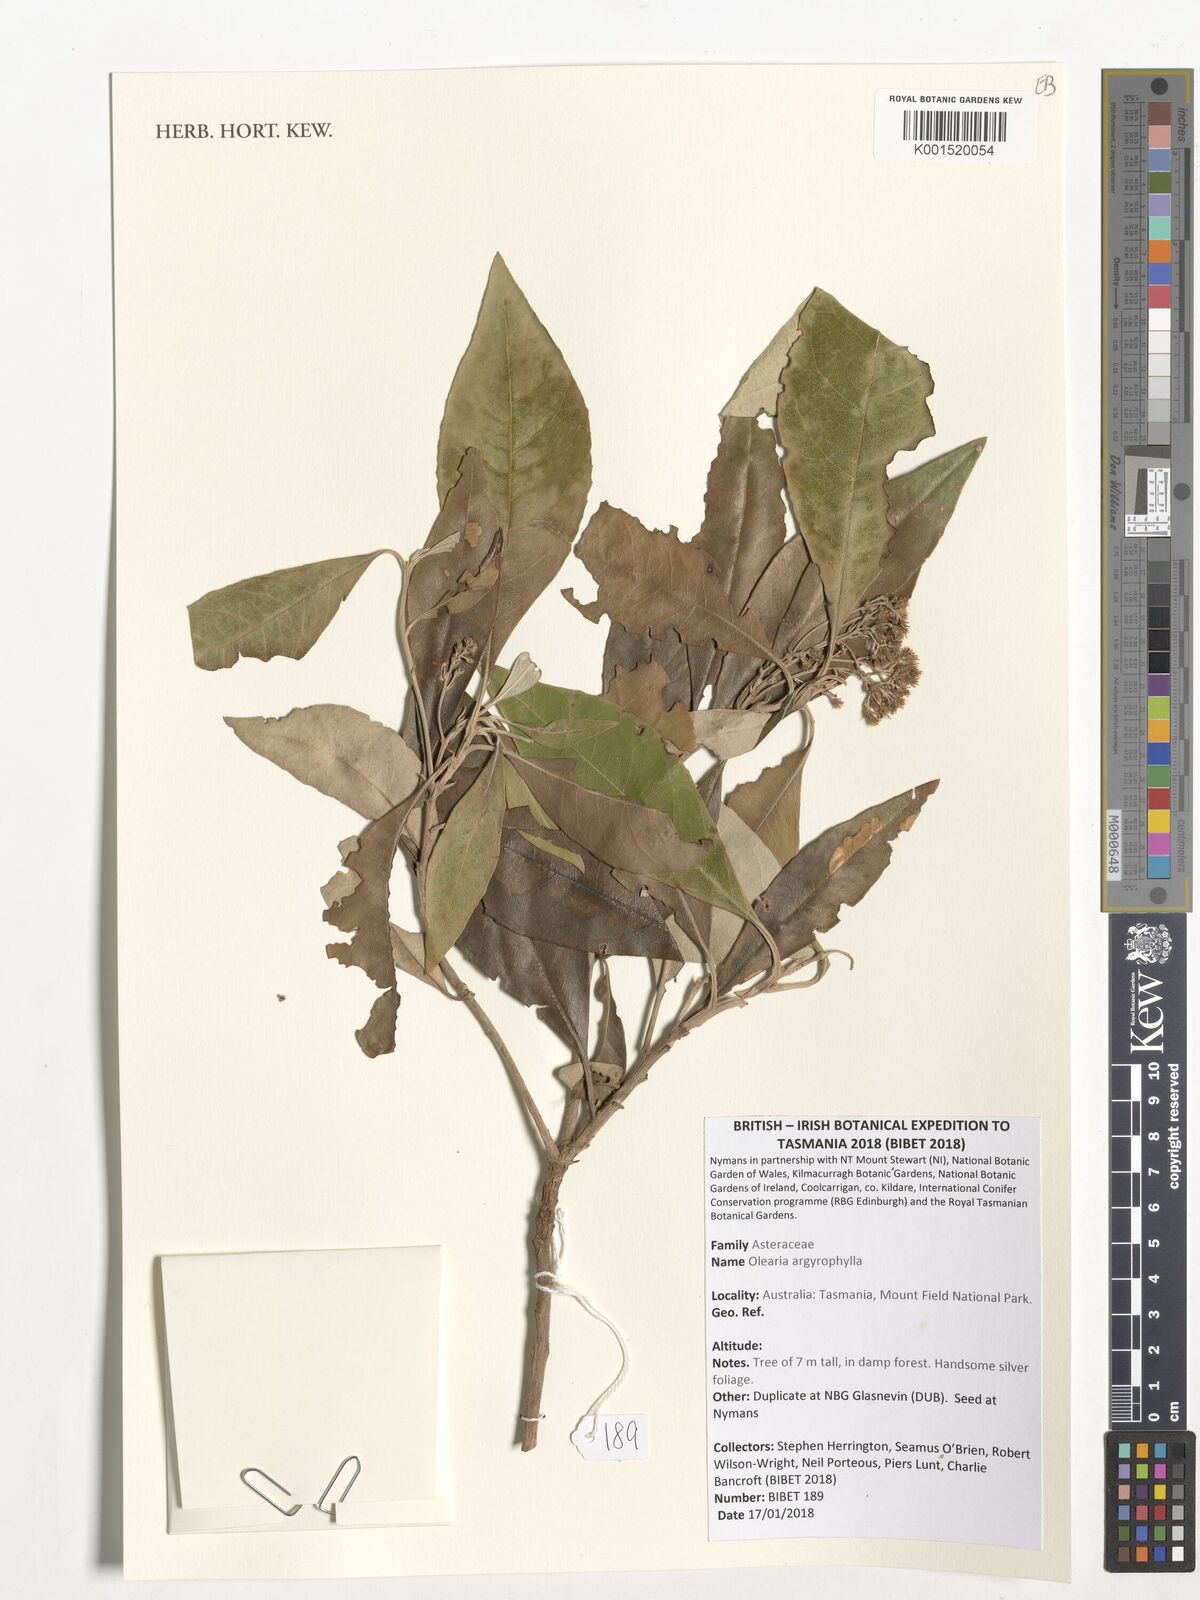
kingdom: Plantae
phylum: Tracheophyta
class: Magnoliopsida
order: Asterales
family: Asteraceae
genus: Olearia
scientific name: Olearia argophylla
